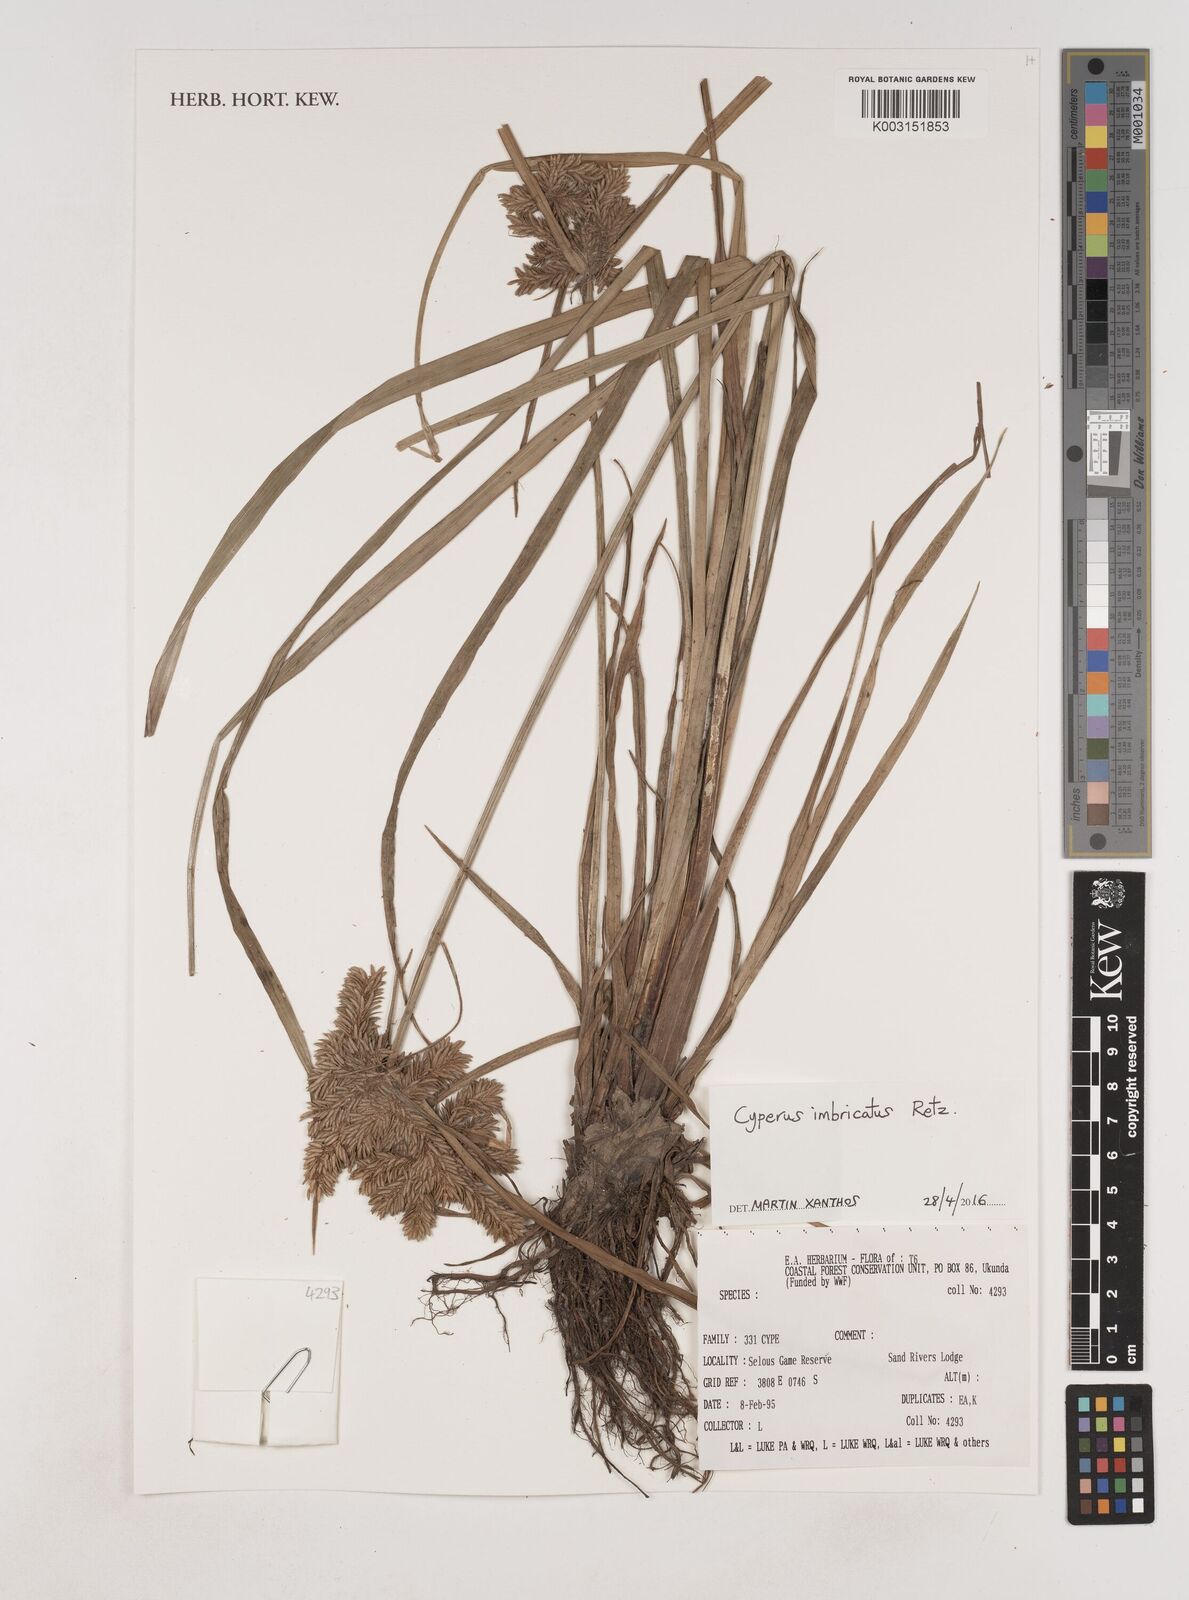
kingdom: Plantae
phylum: Tracheophyta
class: Liliopsida
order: Poales
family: Cyperaceae
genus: Cyperus
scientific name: Cyperus imbricatus
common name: Shingle flatsedge
